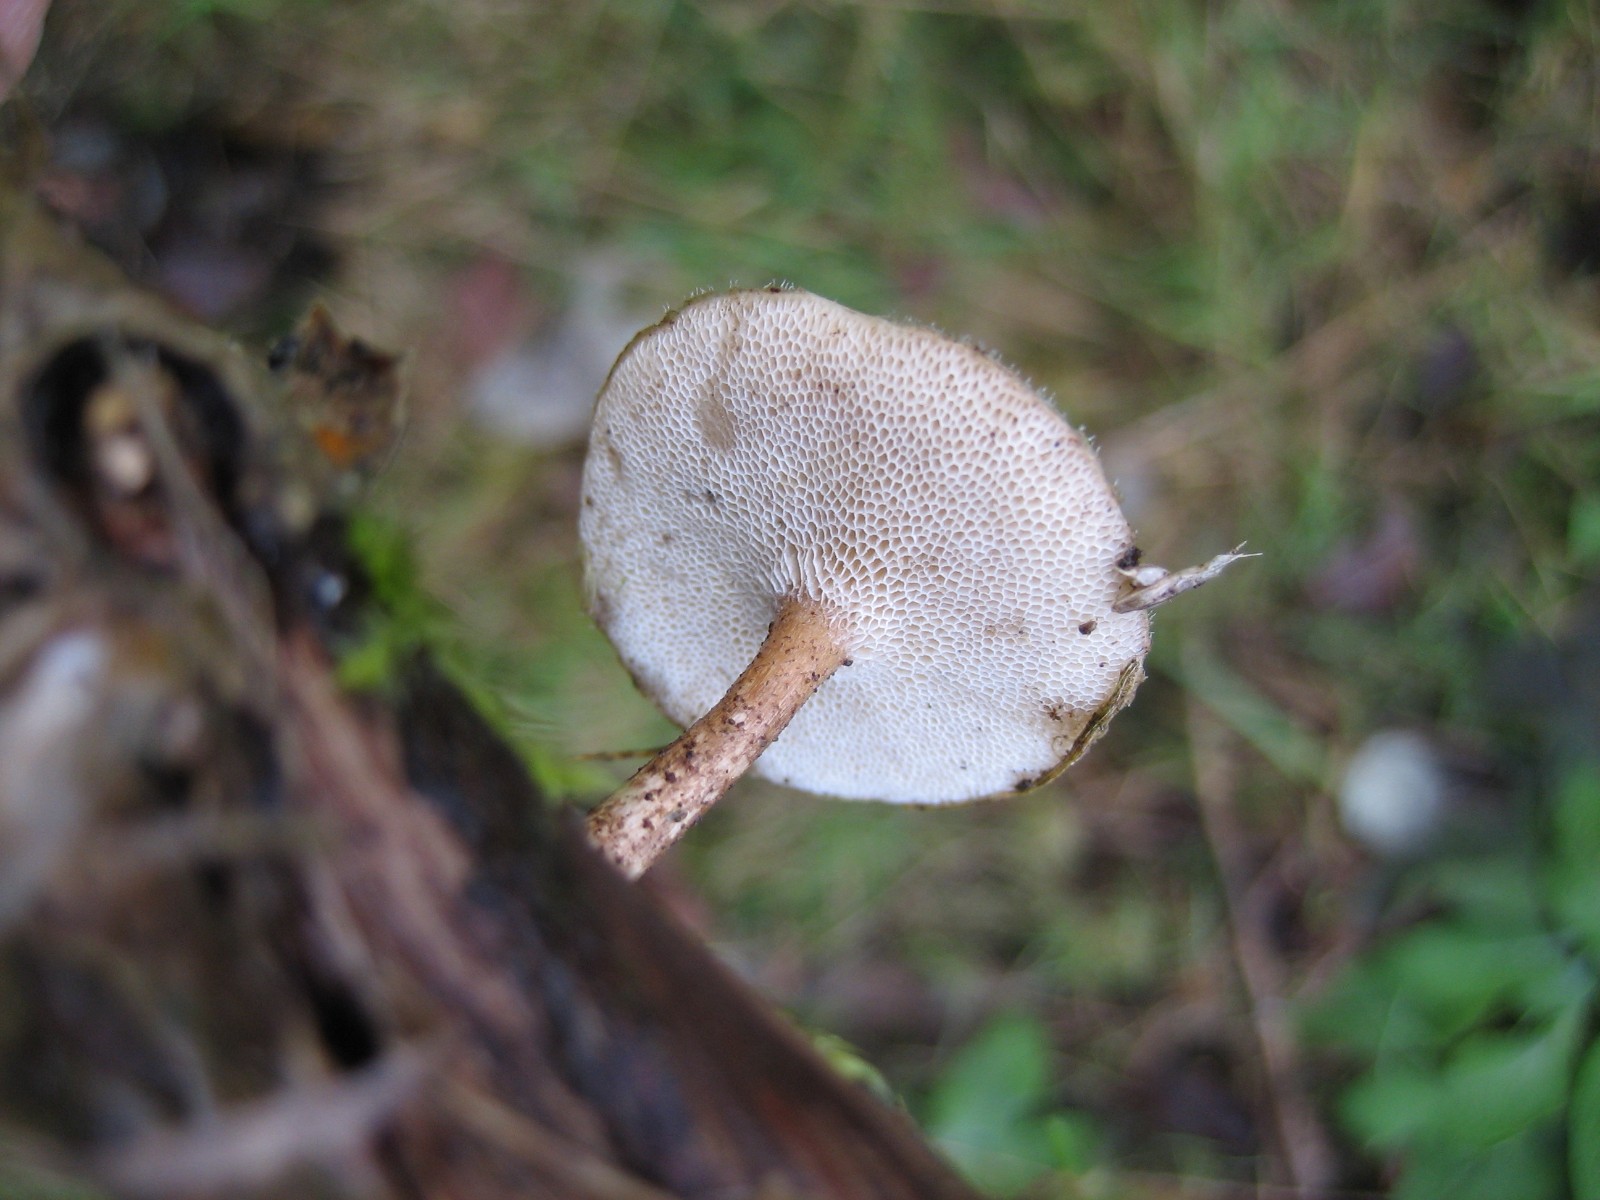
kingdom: Fungi
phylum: Basidiomycota
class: Agaricomycetes
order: Polyporales
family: Polyporaceae
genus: Lentinus
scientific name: Lentinus brumalis
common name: vinter-stilkporesvamp
